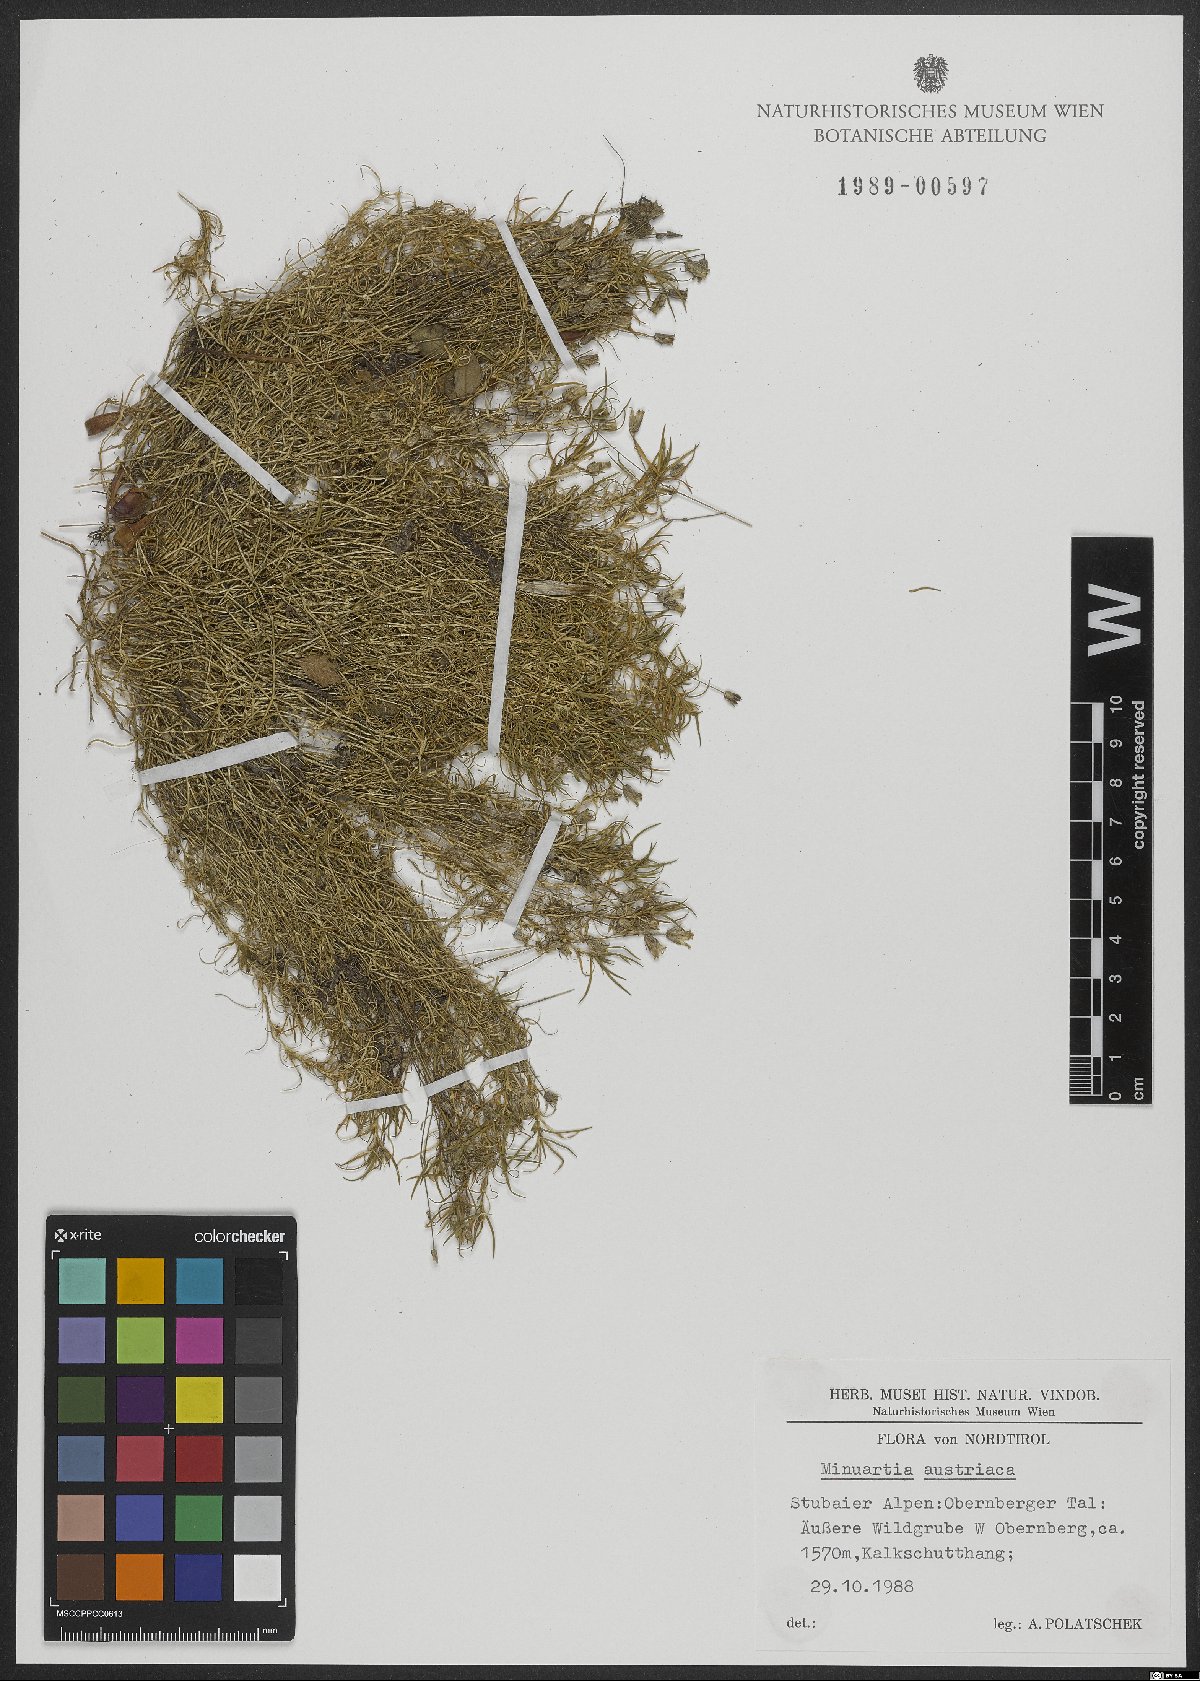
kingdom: Plantae
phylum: Tracheophyta
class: Magnoliopsida
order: Caryophyllales
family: Caryophyllaceae
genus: Sabulina
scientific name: Sabulina austriaca
